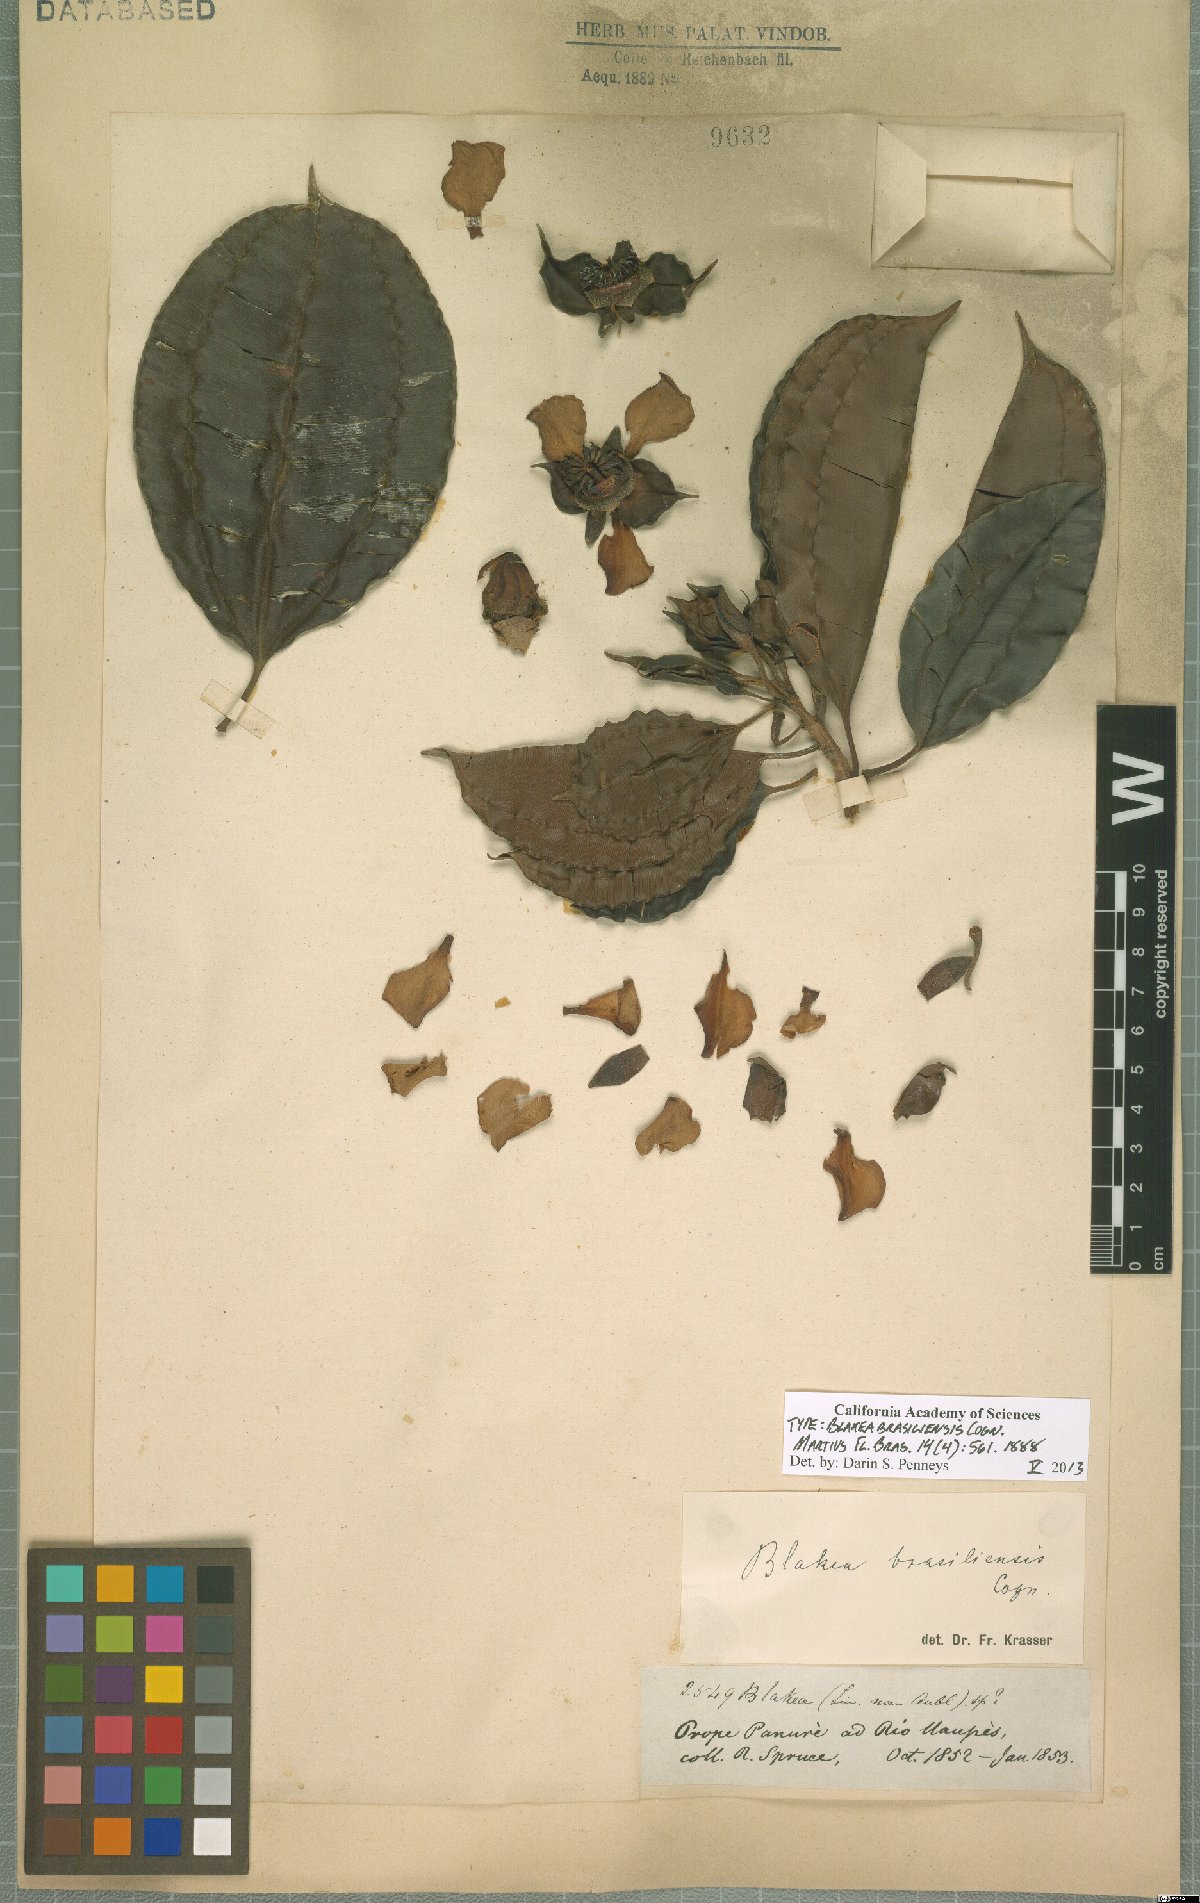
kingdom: Plantae
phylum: Tracheophyta
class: Magnoliopsida
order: Myrtales
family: Melastomataceae
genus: Blakea
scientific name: Blakea brasiliensis
